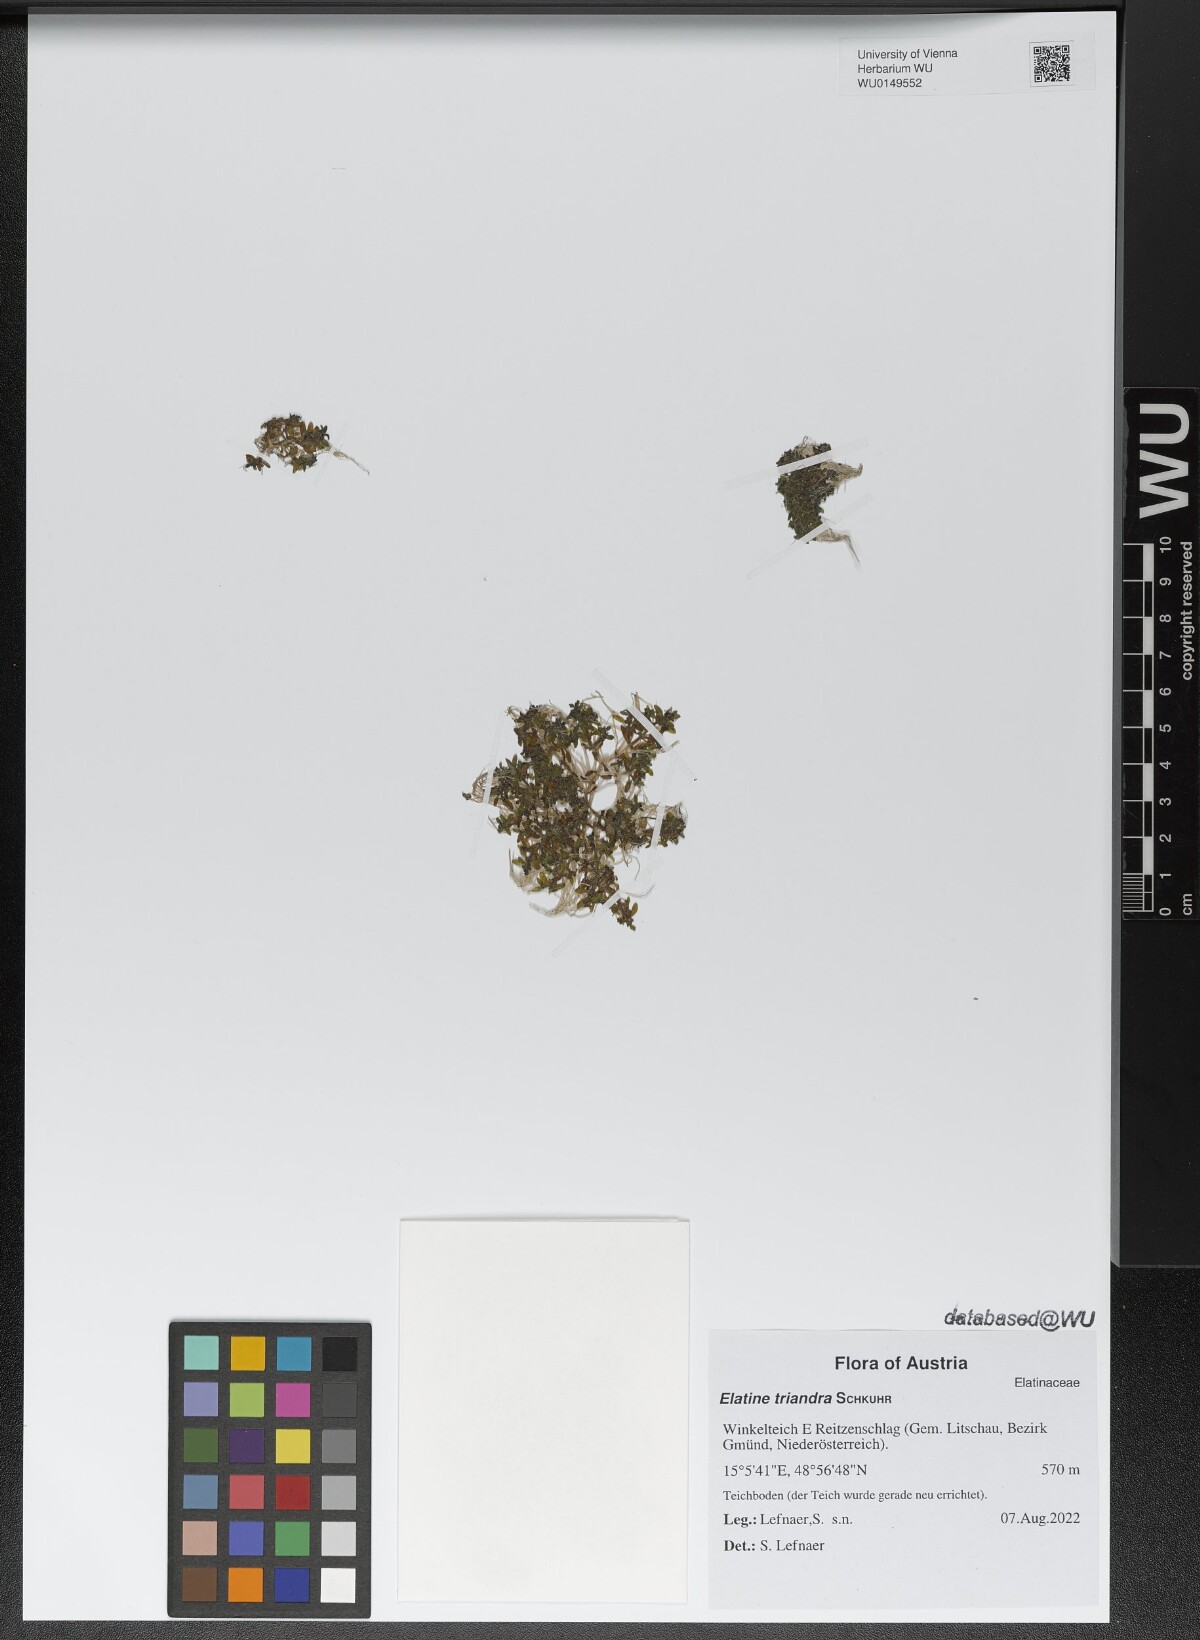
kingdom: Plantae
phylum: Tracheophyta
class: Magnoliopsida
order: Malpighiales
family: Elatinaceae
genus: Elatine
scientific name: Elatine triandra
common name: Three-stamened waterwort
